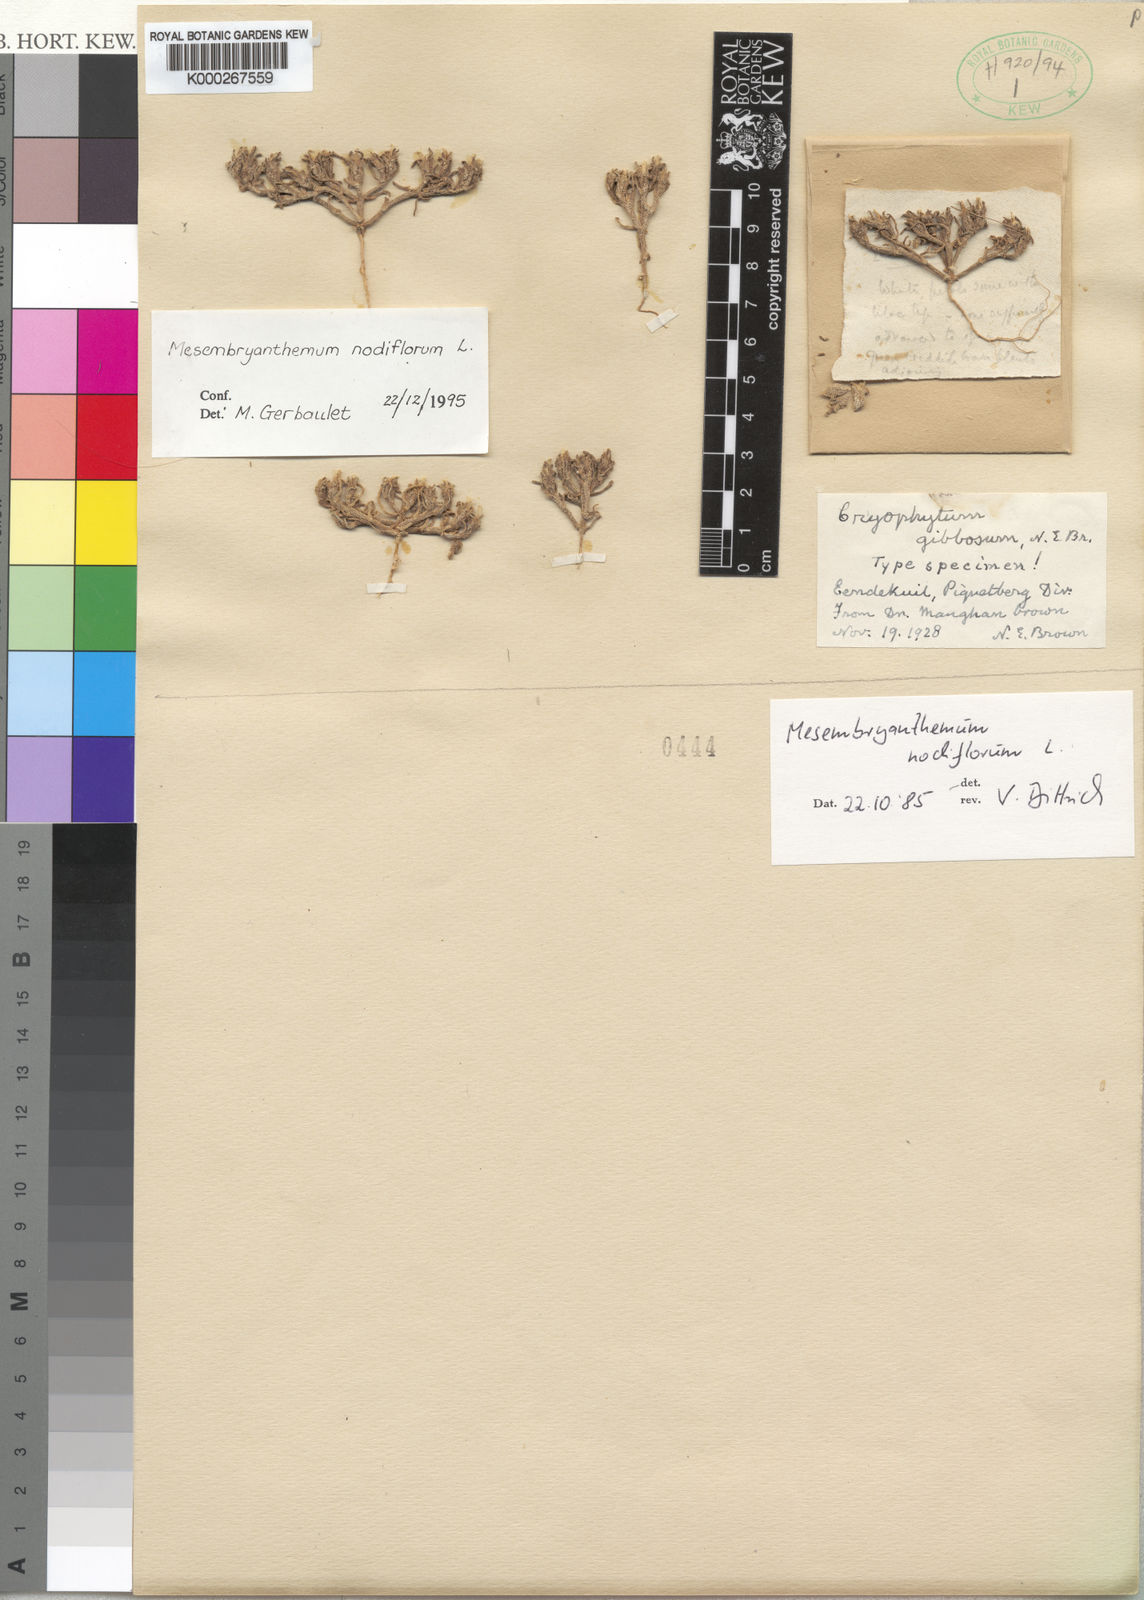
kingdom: Plantae
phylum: Tracheophyta
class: Magnoliopsida
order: Caryophyllales
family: Aizoaceae
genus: Mesembryanthemum
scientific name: Mesembryanthemum nodiflorum
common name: Slenderleaf iceplant
